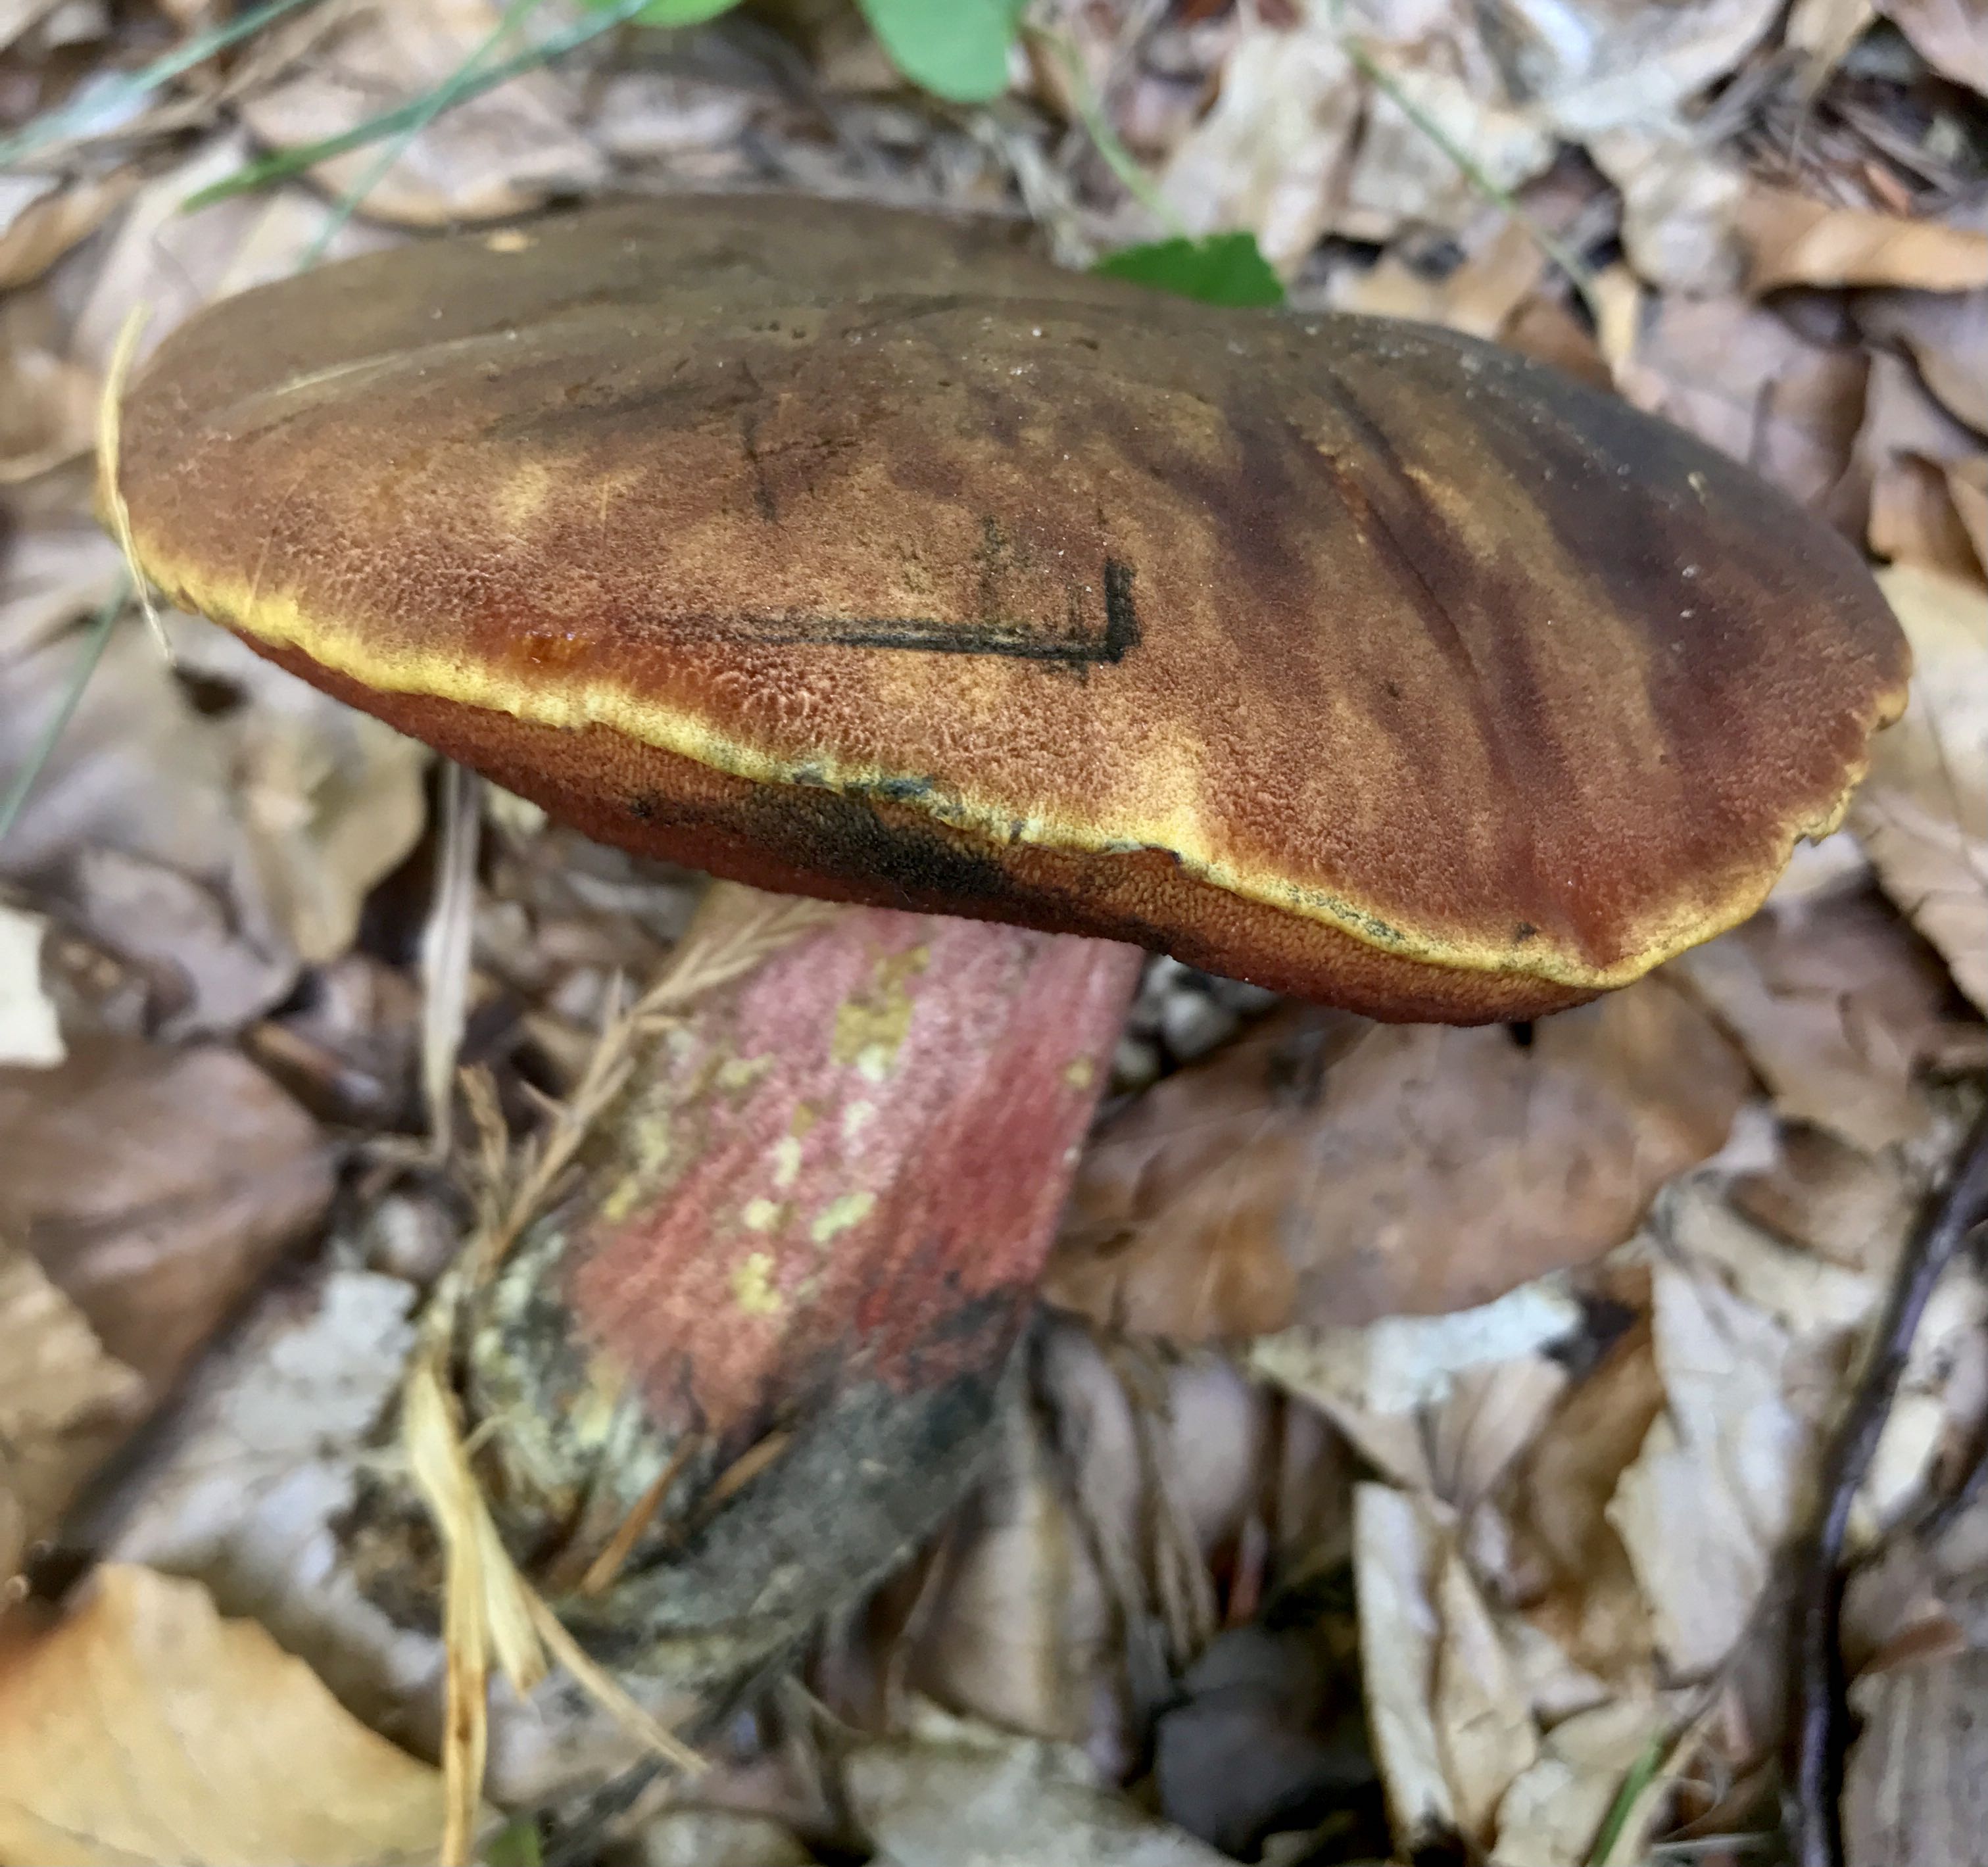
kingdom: Fungi
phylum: Basidiomycota
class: Agaricomycetes
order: Boletales
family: Boletaceae
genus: Neoboletus
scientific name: Neoboletus erythropus
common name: punktstokket indigorørhat
